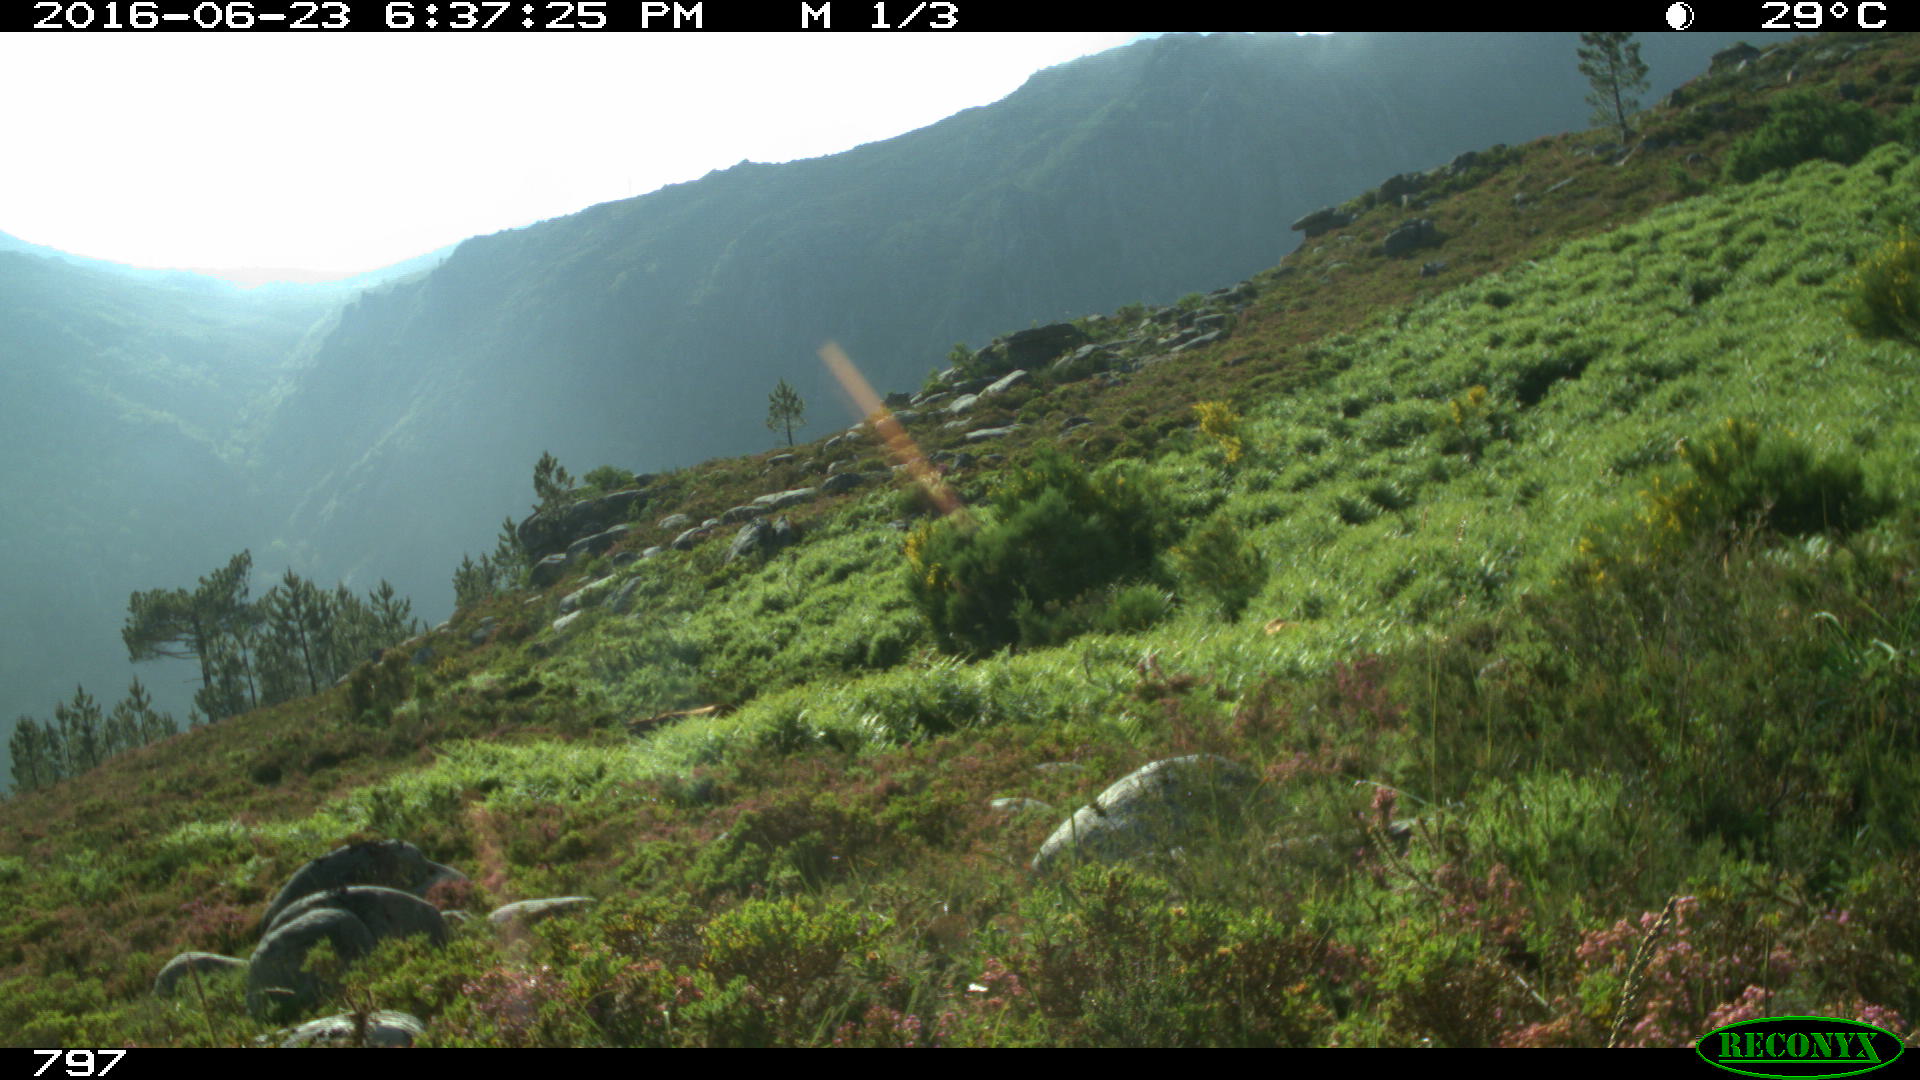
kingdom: Animalia
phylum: Chordata
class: Mammalia
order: Artiodactyla
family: Bovidae
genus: Bos
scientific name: Bos taurus
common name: Domesticated cattle
